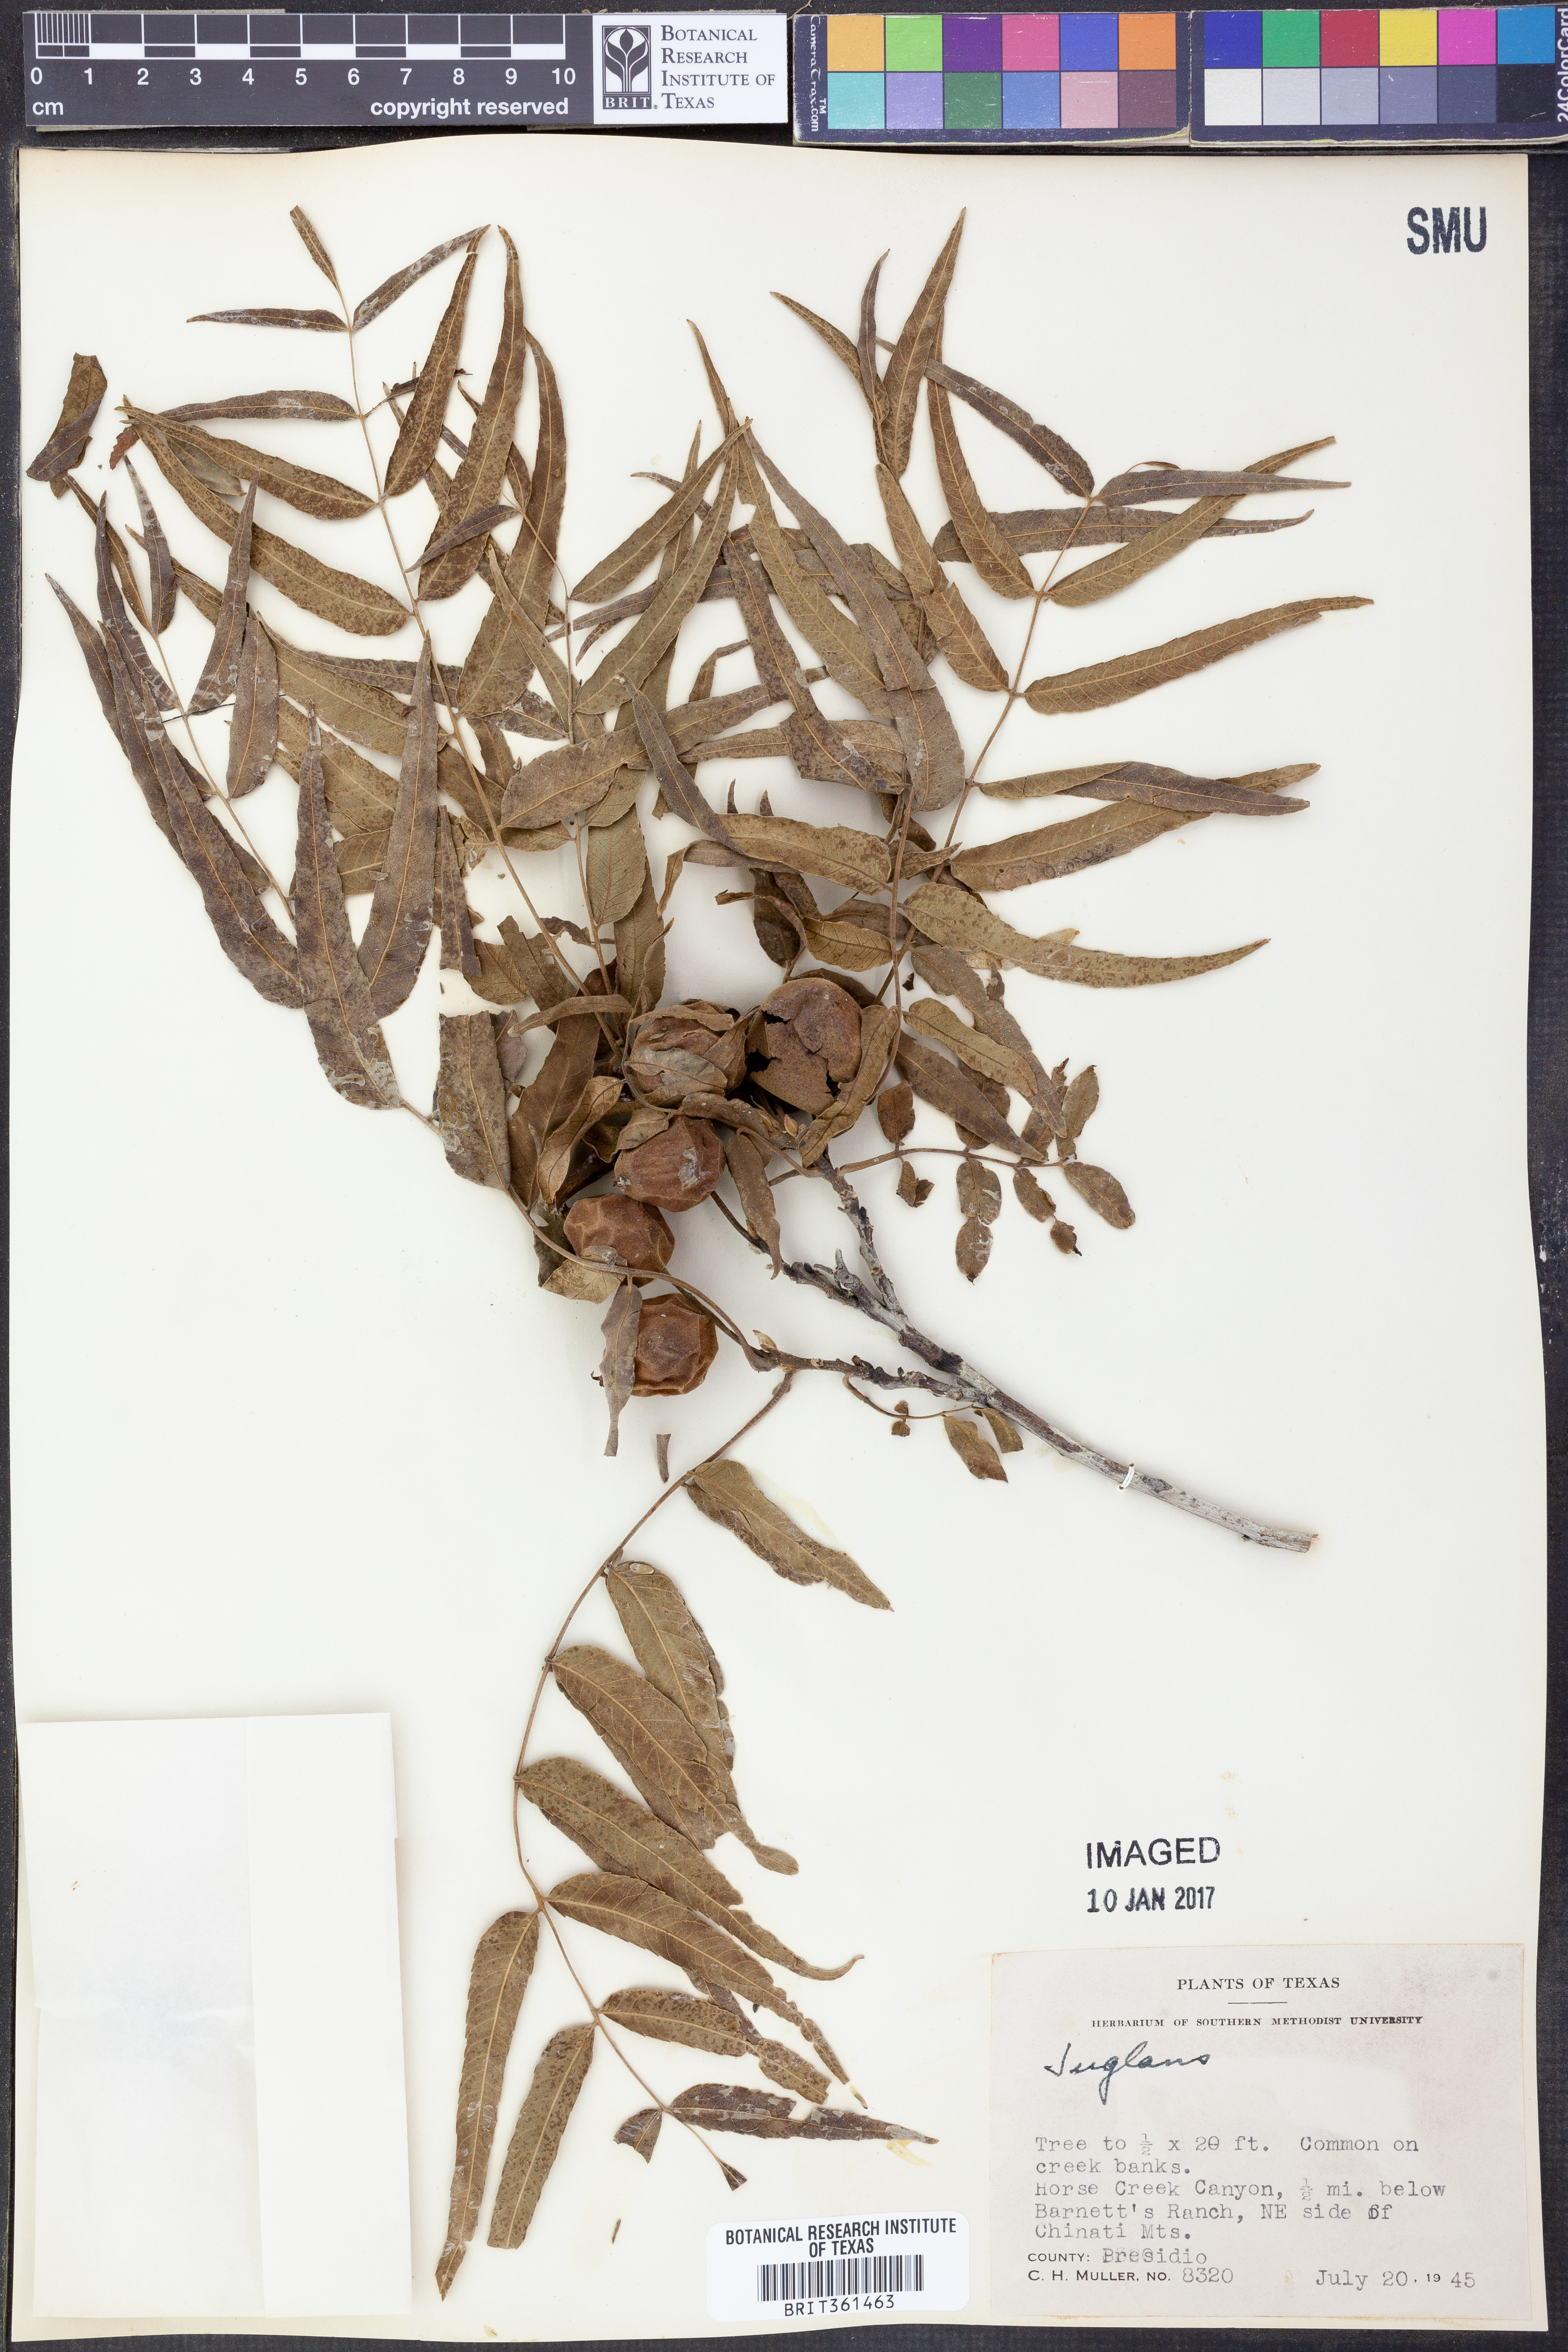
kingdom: Plantae
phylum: Tracheophyta
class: Magnoliopsida
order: Fagales
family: Juglandaceae
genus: Juglans
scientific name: Juglans
